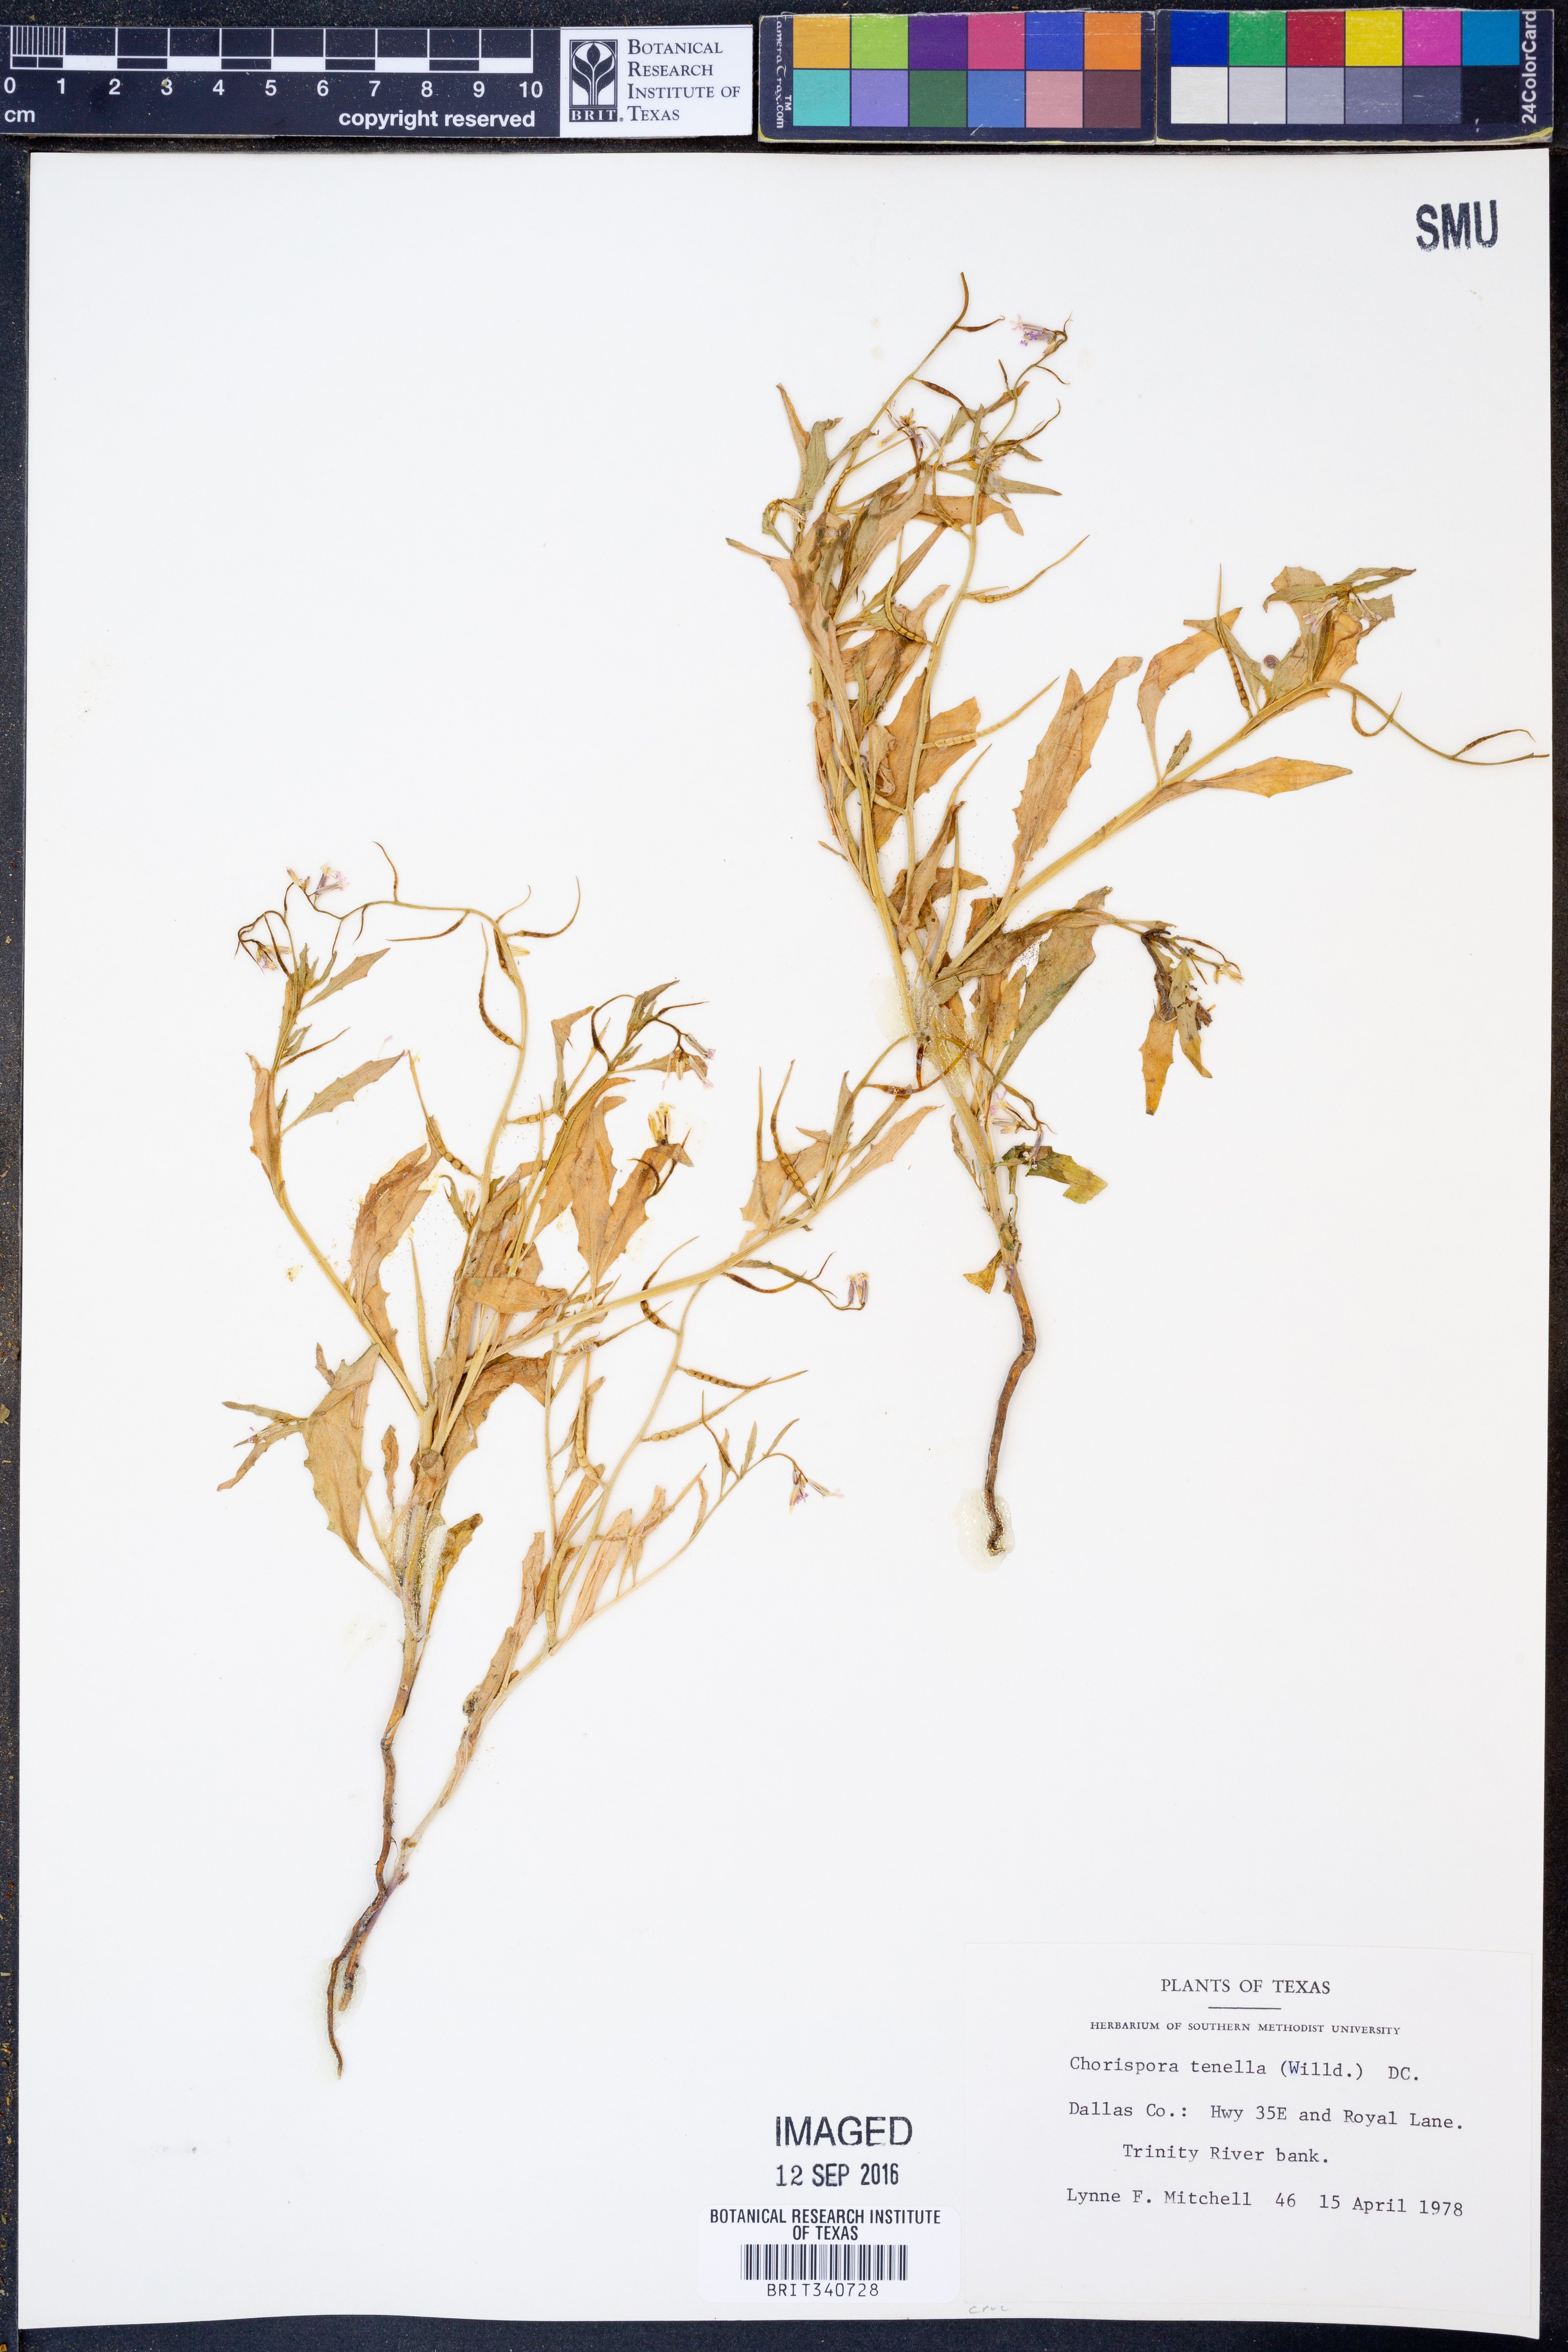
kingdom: Plantae
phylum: Tracheophyta
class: Magnoliopsida
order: Brassicales
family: Brassicaceae
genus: Chorispora
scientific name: Chorispora tenella
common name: Crossflower
